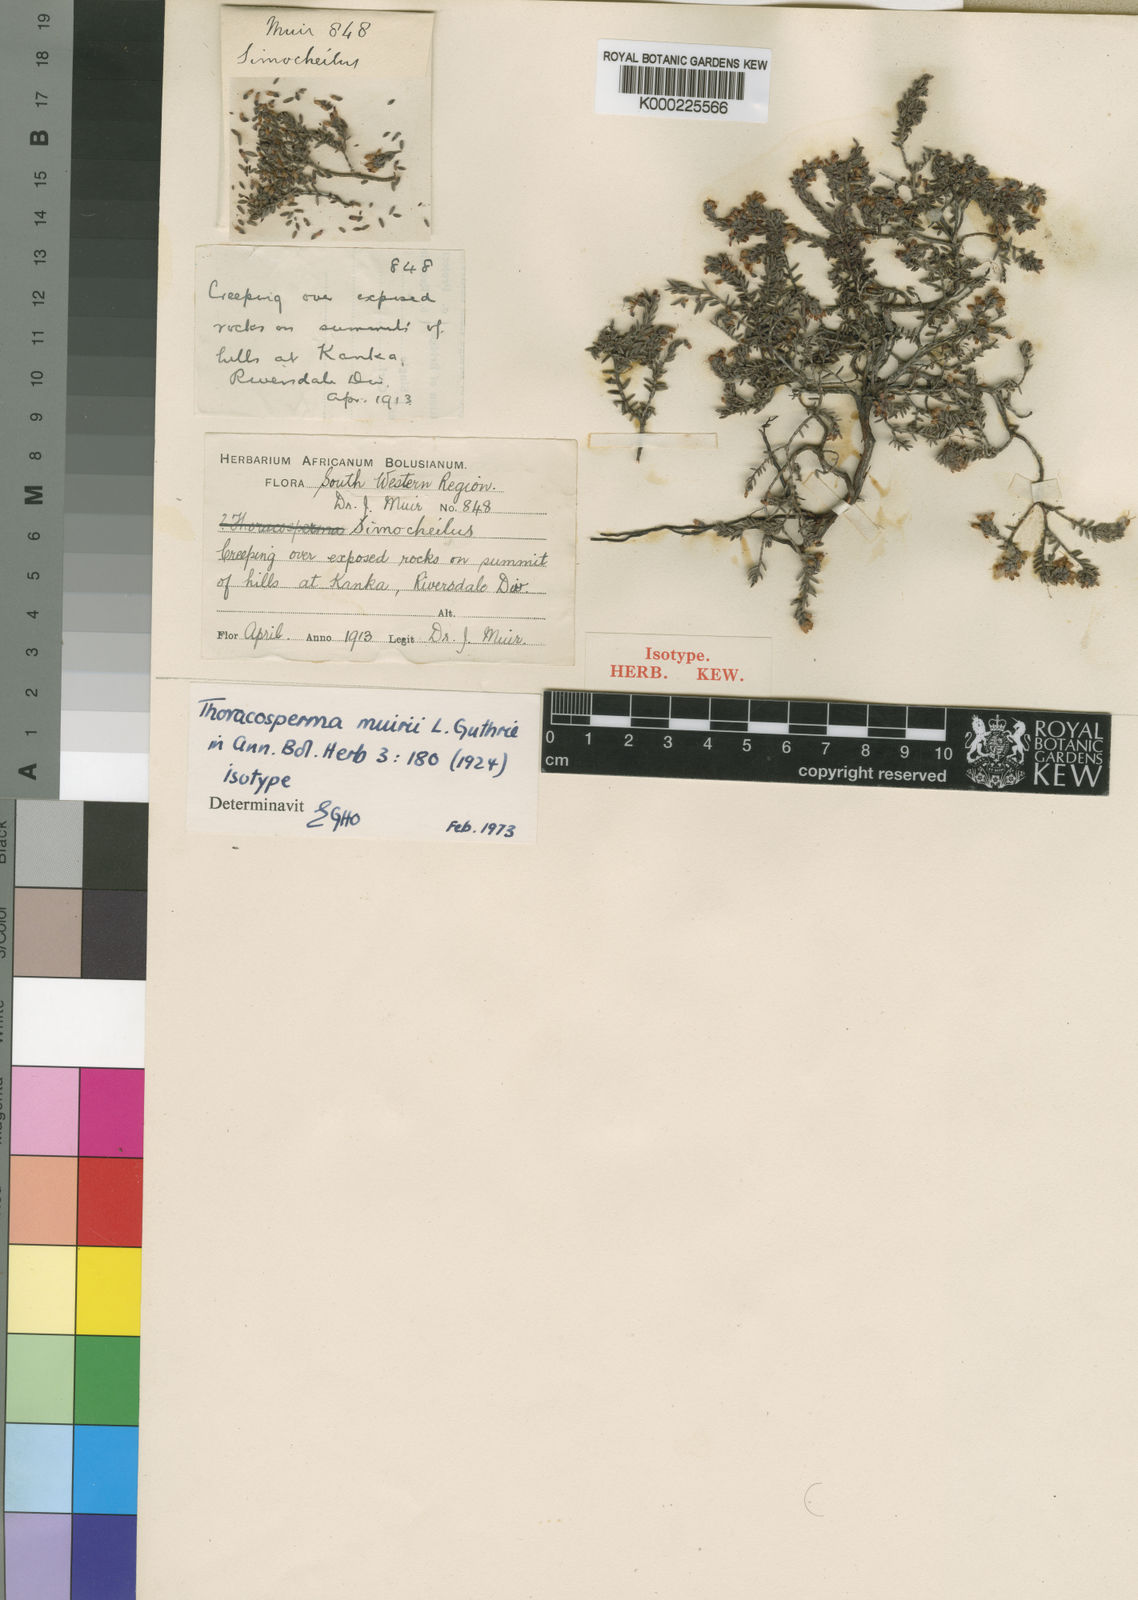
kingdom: Plantae
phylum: Tracheophyta
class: Magnoliopsida
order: Ericales
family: Ericaceae
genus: Erica
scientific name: Erica radicans
